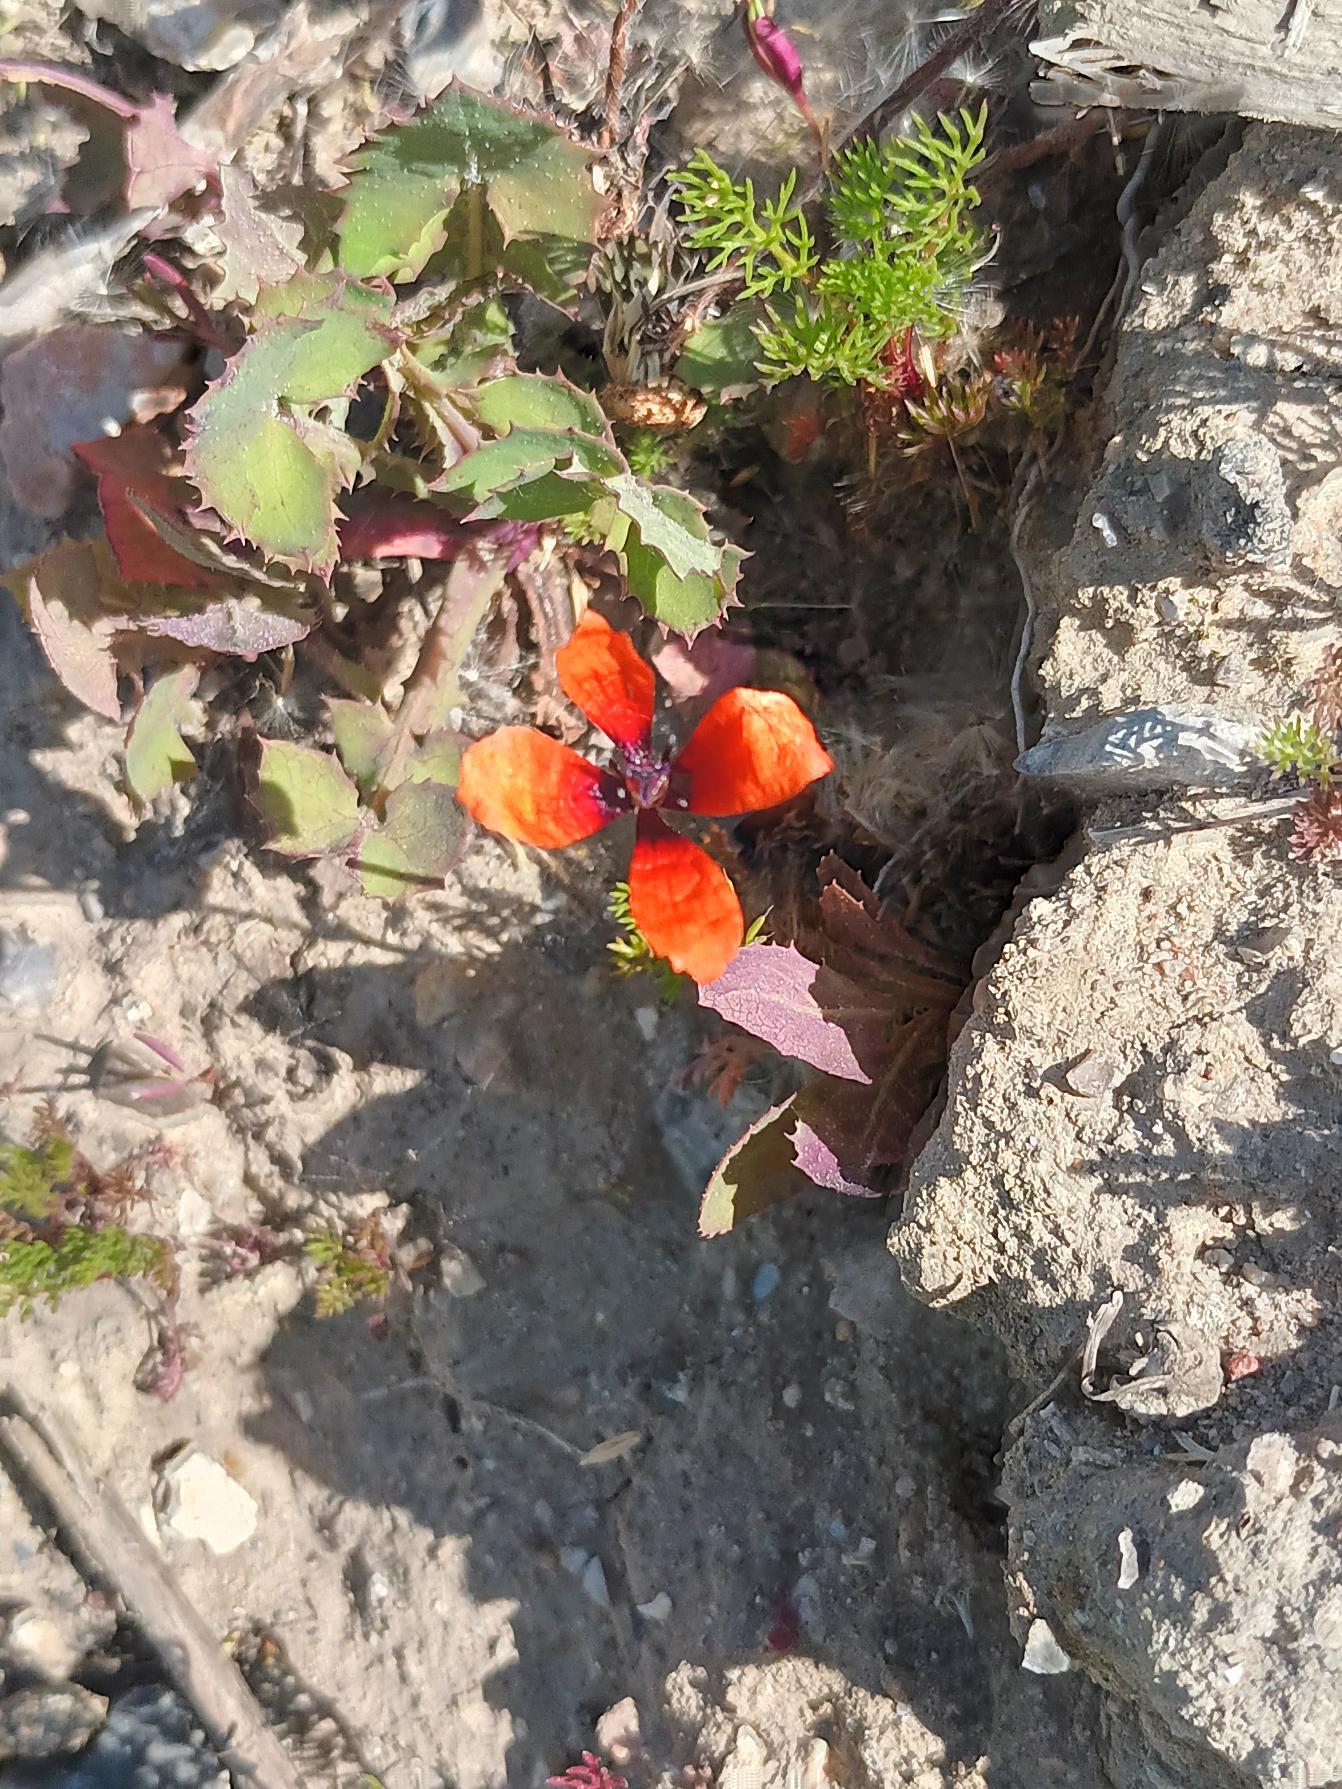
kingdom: Plantae
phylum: Tracheophyta
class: Magnoliopsida
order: Ranunculales
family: Papaveraceae
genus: Roemeria
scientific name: Roemeria argemone
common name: Kølle-valmue
